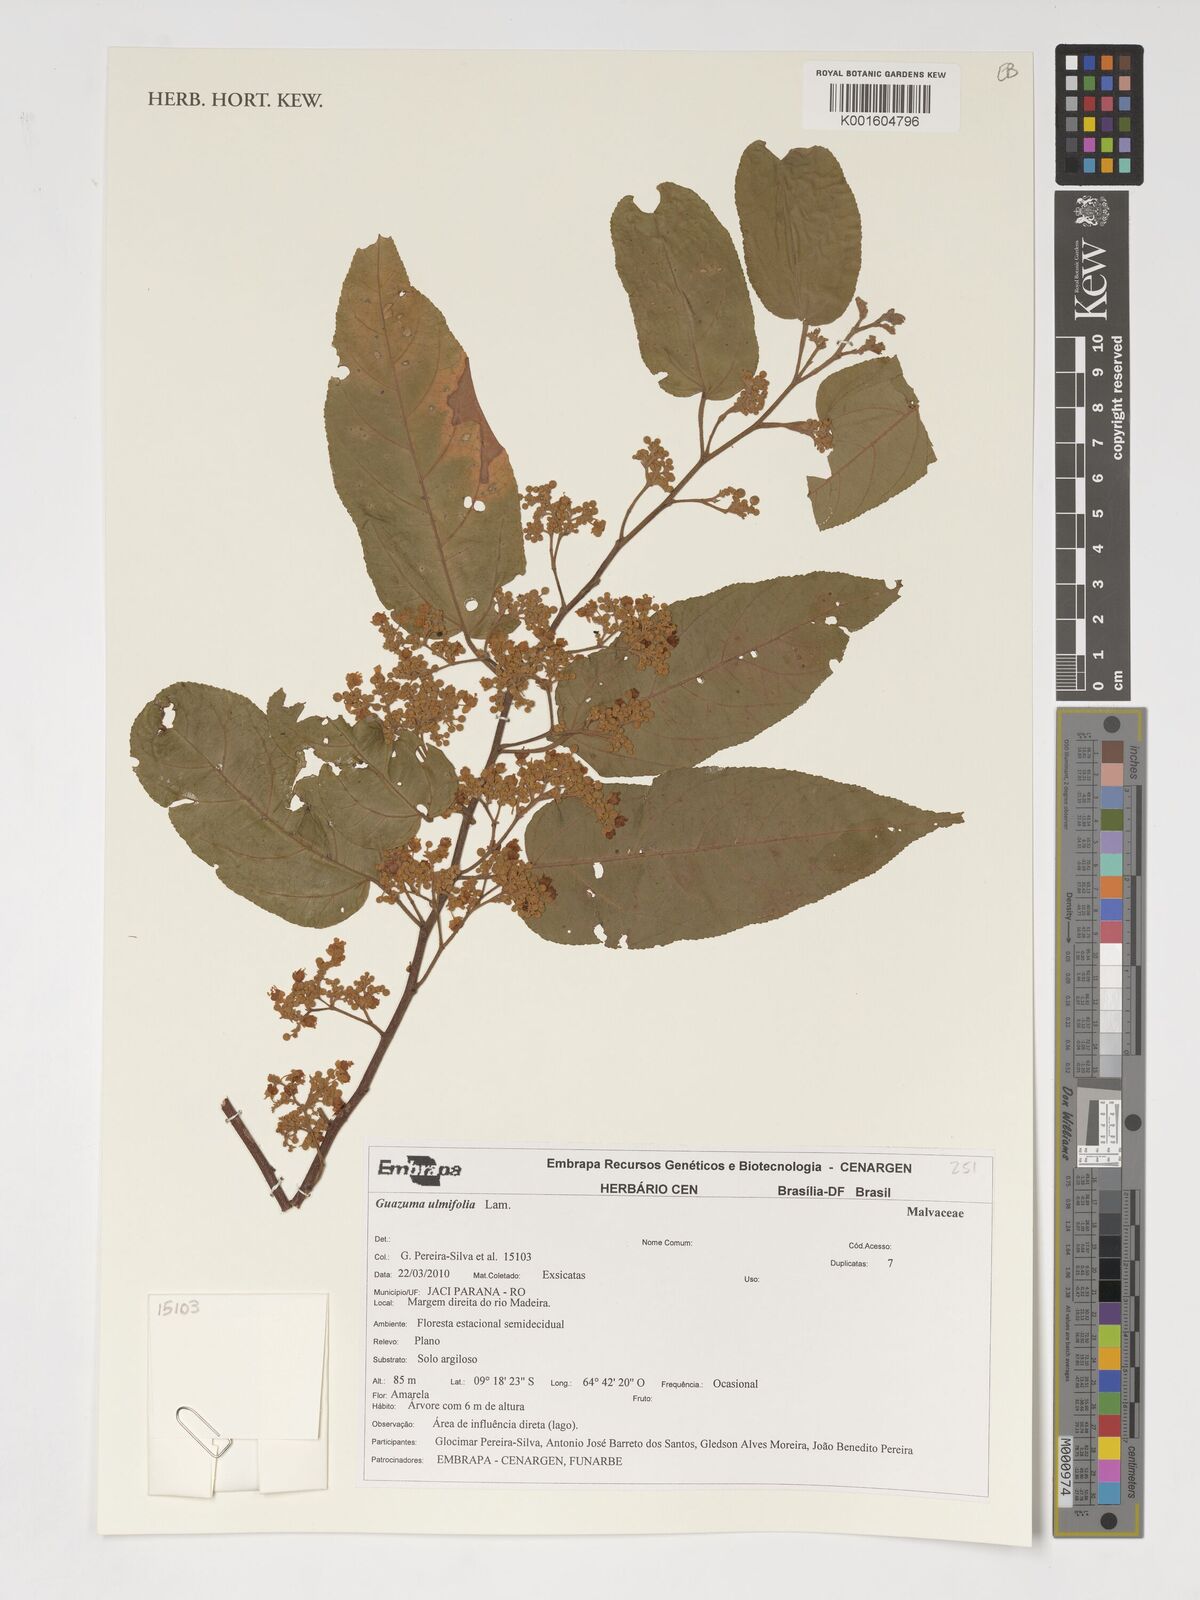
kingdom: Plantae
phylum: Tracheophyta
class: Magnoliopsida
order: Malvales
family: Malvaceae
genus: Guazuma
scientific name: Guazuma ulmifolia
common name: Bastard-cedar
